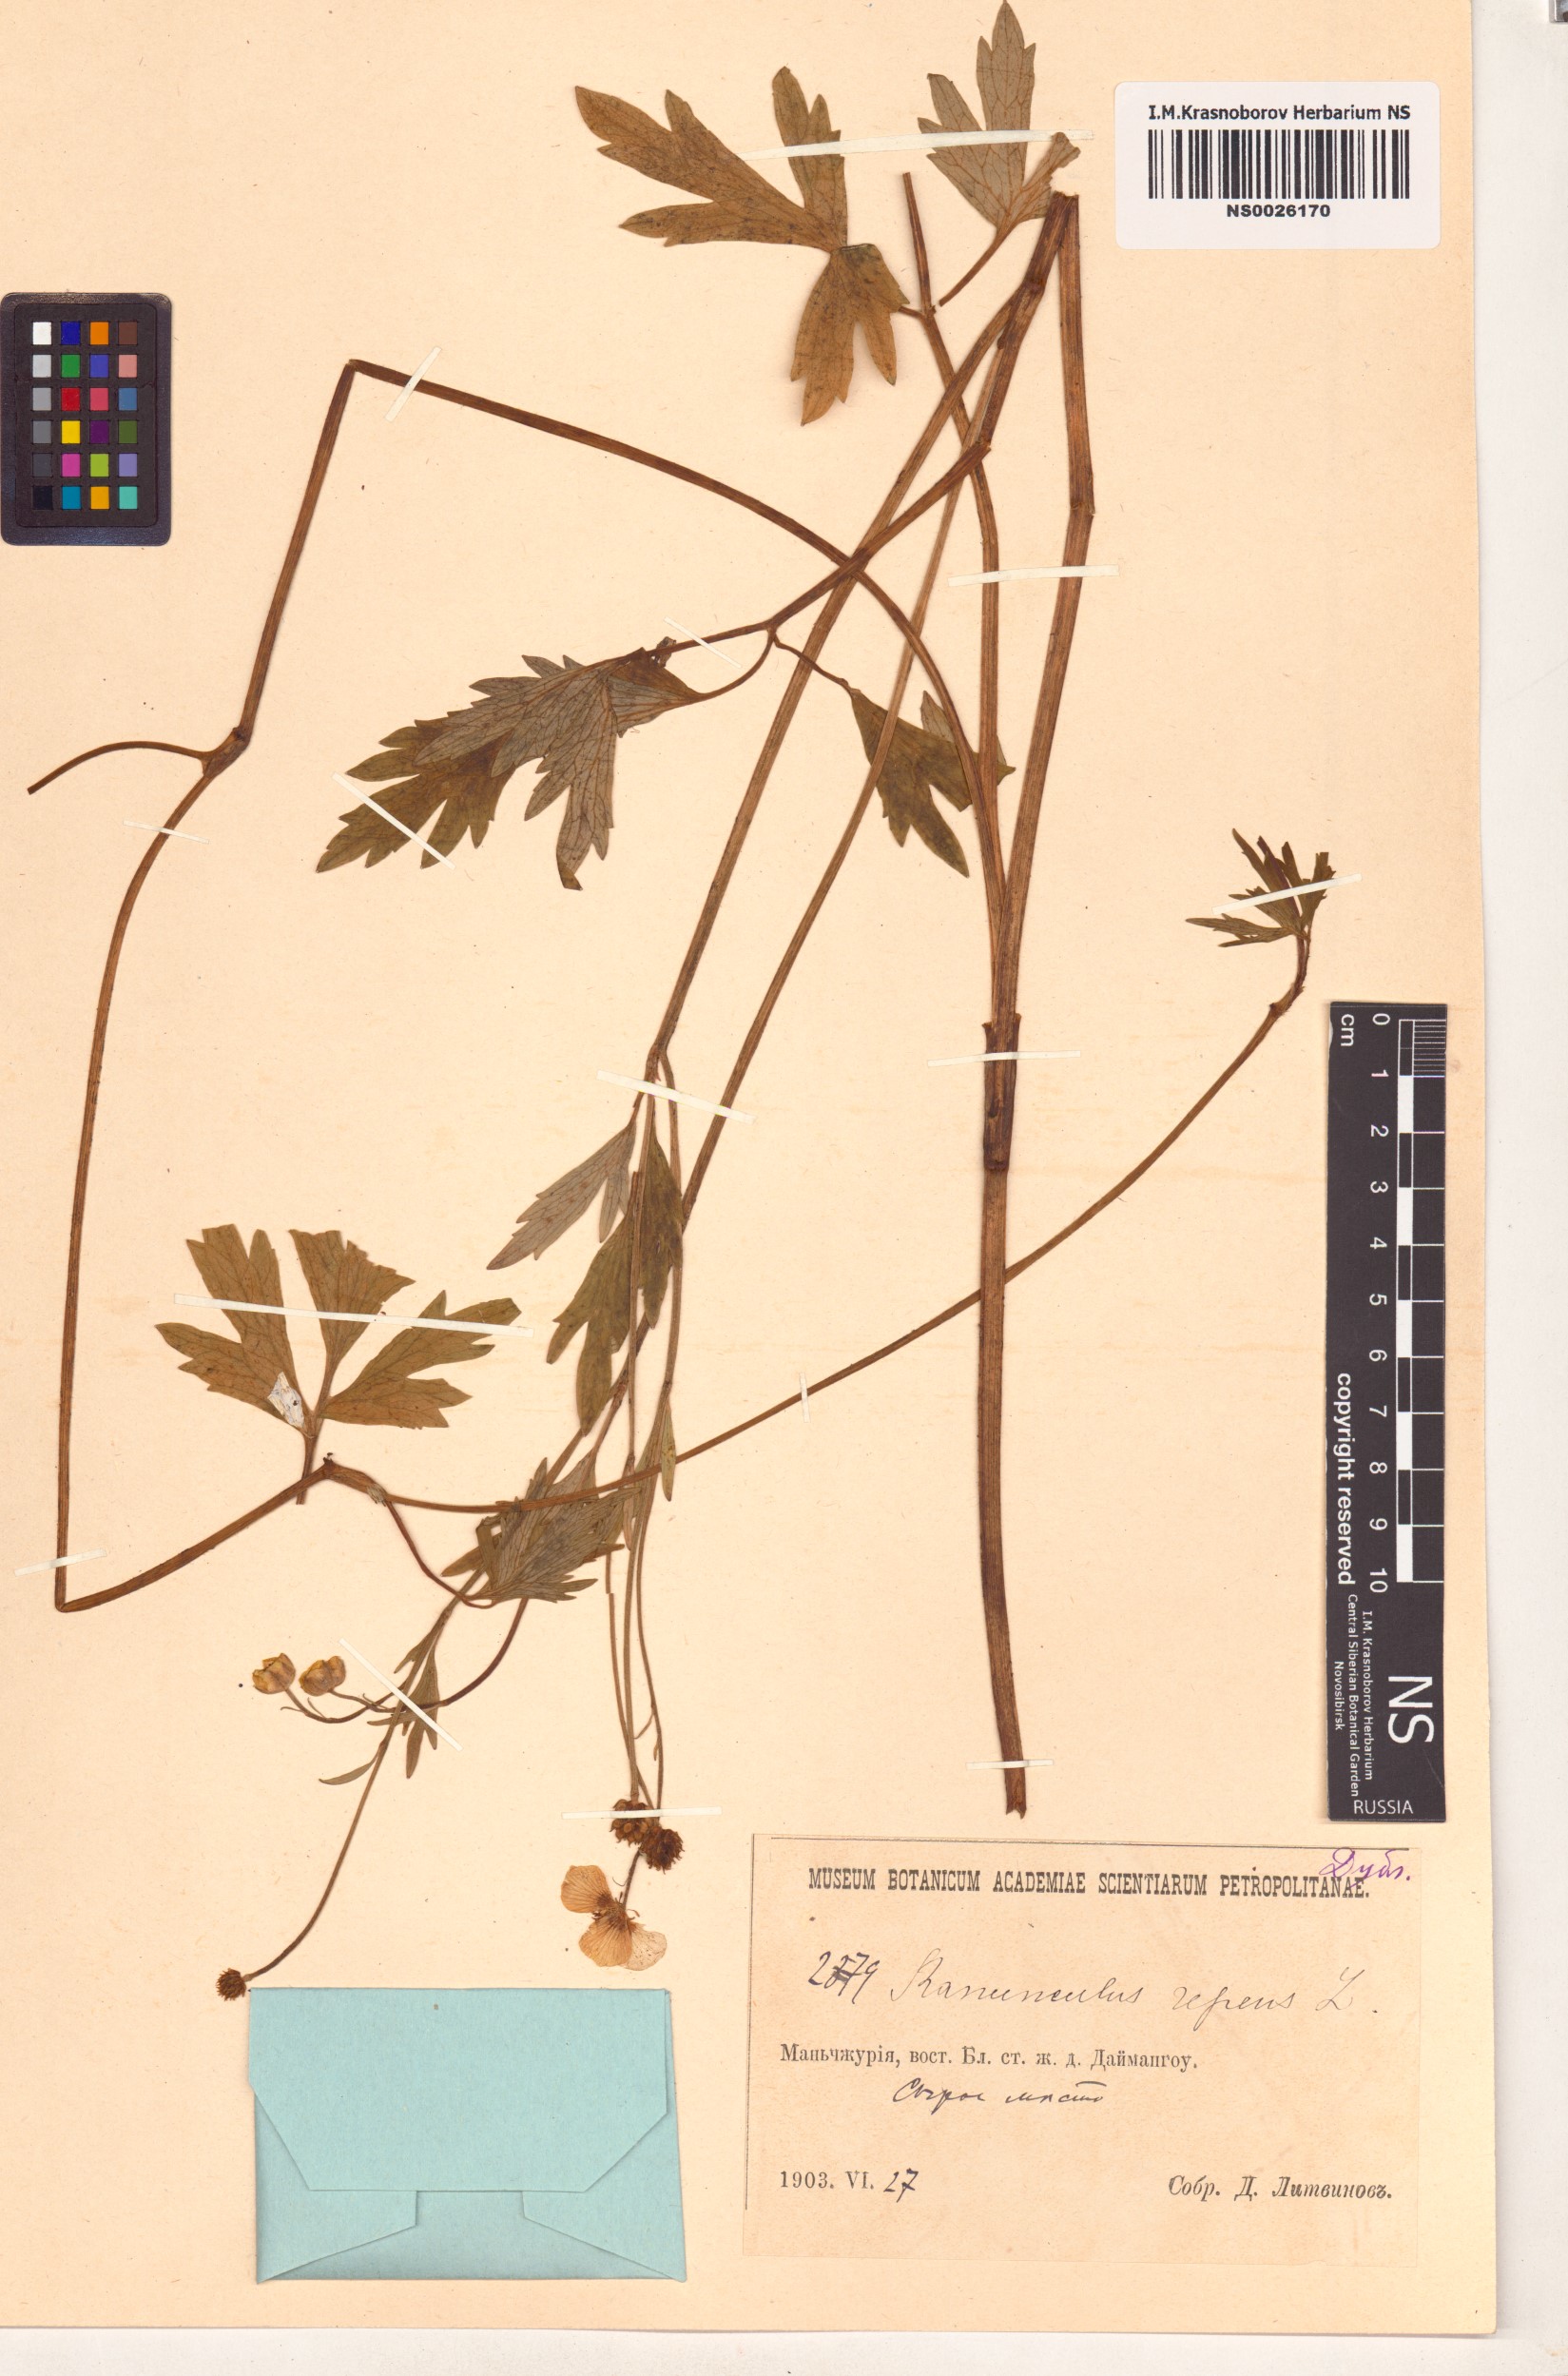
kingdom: Plantae
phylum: Tracheophyta
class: Magnoliopsida
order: Ranunculales
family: Ranunculaceae
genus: Ranunculus
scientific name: Ranunculus repens
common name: Creeping buttercup
